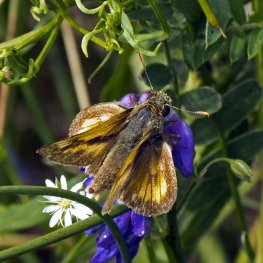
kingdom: Animalia
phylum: Arthropoda
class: Insecta
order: Lepidoptera
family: Hesperiidae
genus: Polites
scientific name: Polites
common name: Long Dash Skipper
